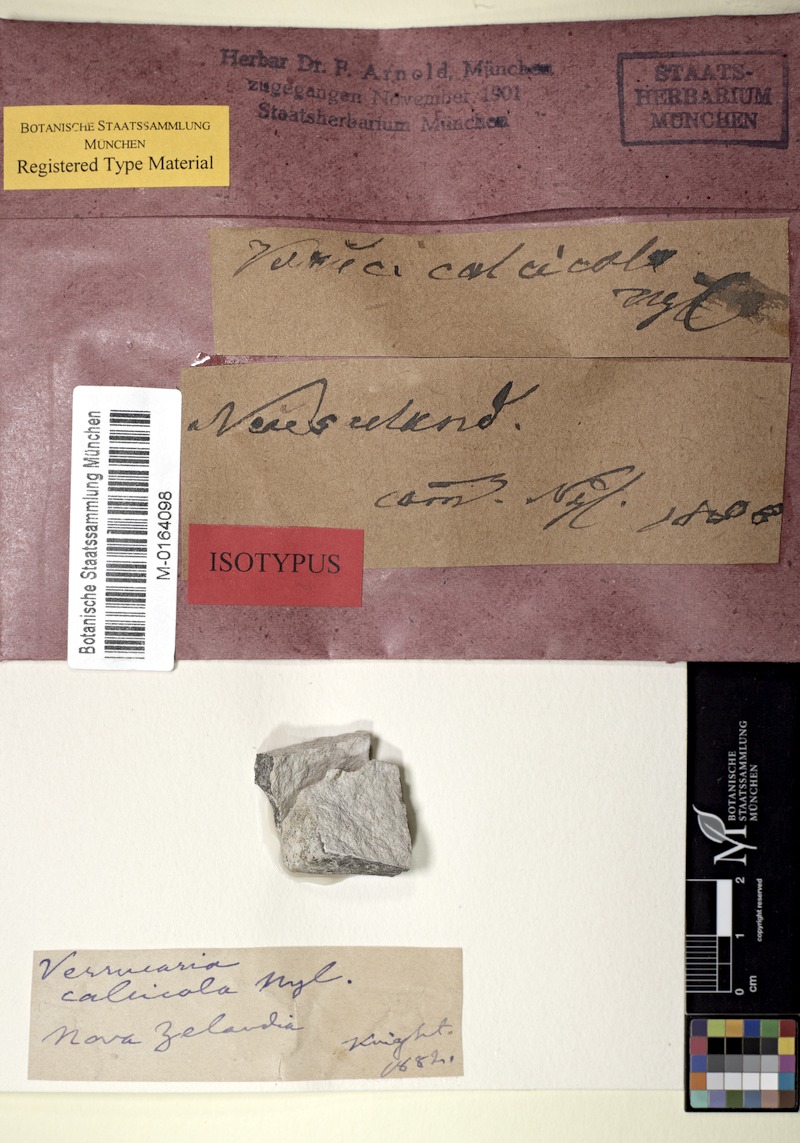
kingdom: Fungi
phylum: Ascomycota
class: Dothideomycetes
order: Pleosporales
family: Arthopyreniaceae
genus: Arthopyrenia
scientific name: Arthopyrenia calcarea
